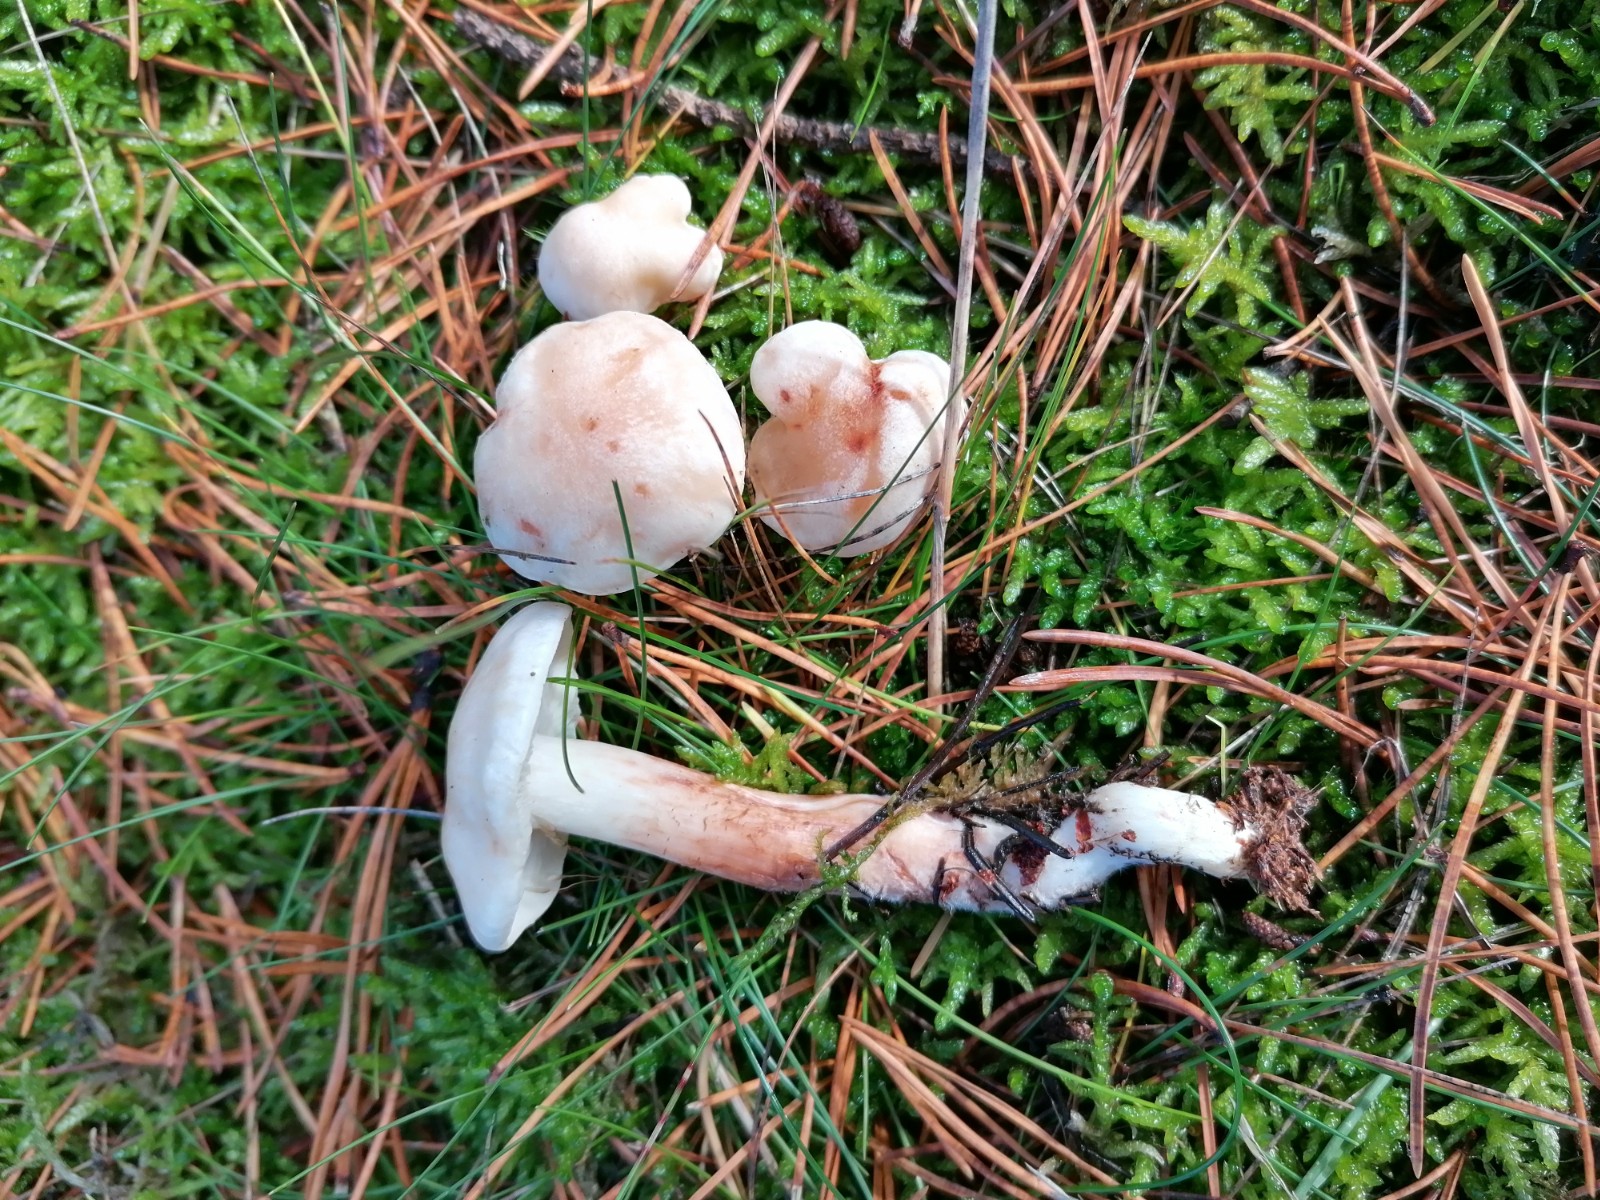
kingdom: Fungi
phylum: Basidiomycota
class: Agaricomycetes
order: Agaricales
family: Omphalotaceae
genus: Rhodocollybia
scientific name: Rhodocollybia maculata
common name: plettet fladhat
